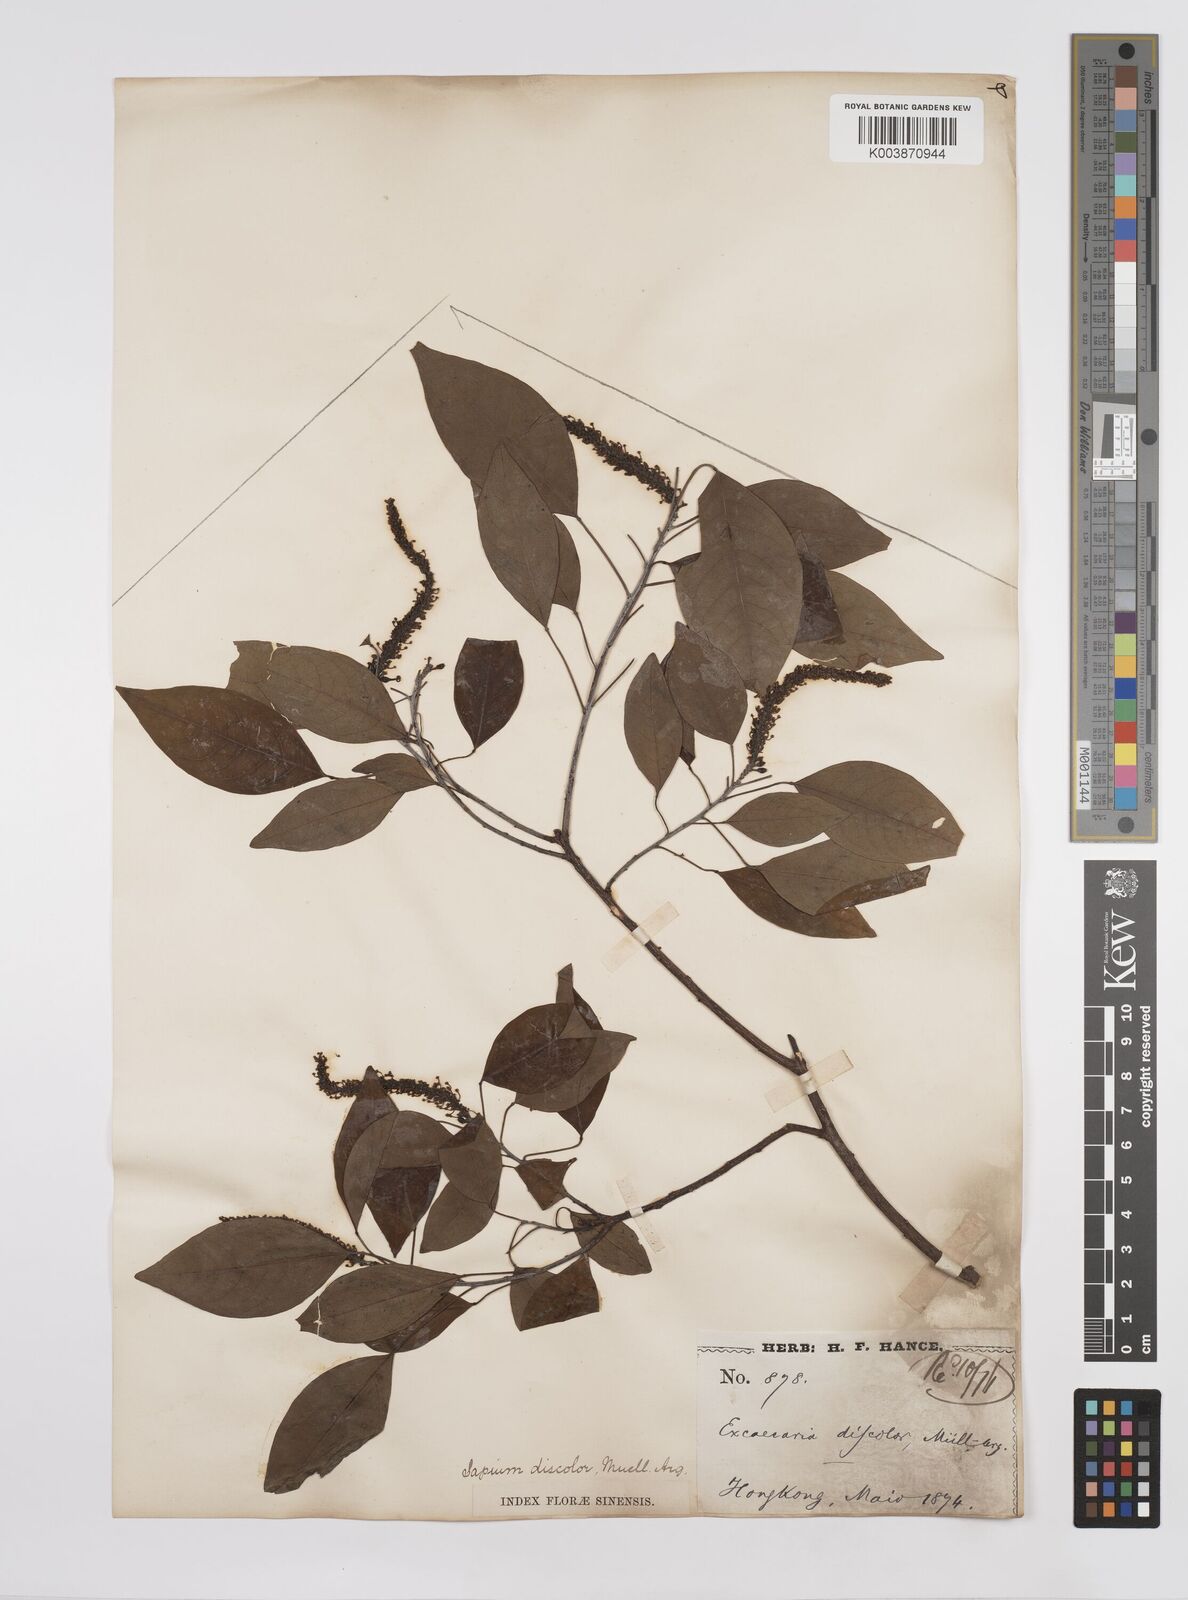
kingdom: Plantae
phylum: Tracheophyta
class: Magnoliopsida
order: Malpighiales
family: Euphorbiaceae
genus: Triadica
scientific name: Triadica cochinchinensis
